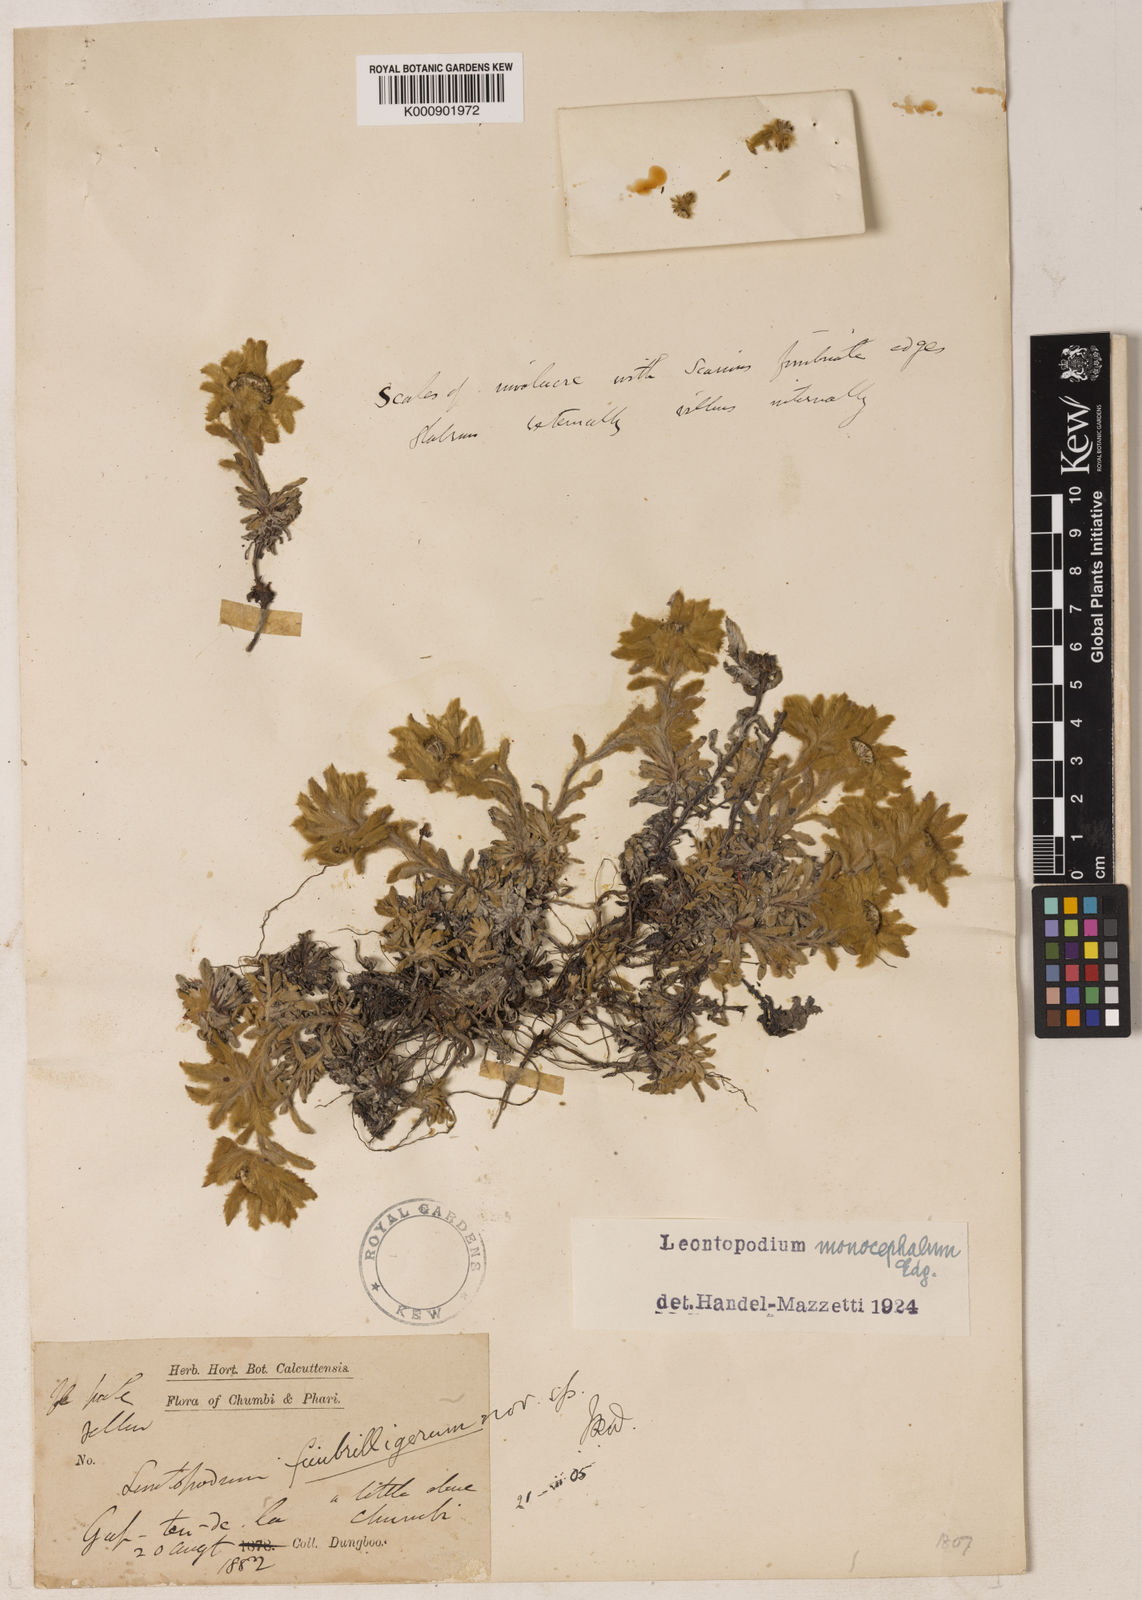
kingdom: Plantae
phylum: Tracheophyta
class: Magnoliopsida
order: Asterales
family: Asteraceae
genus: Leontopodium
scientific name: Leontopodium monocephalum
